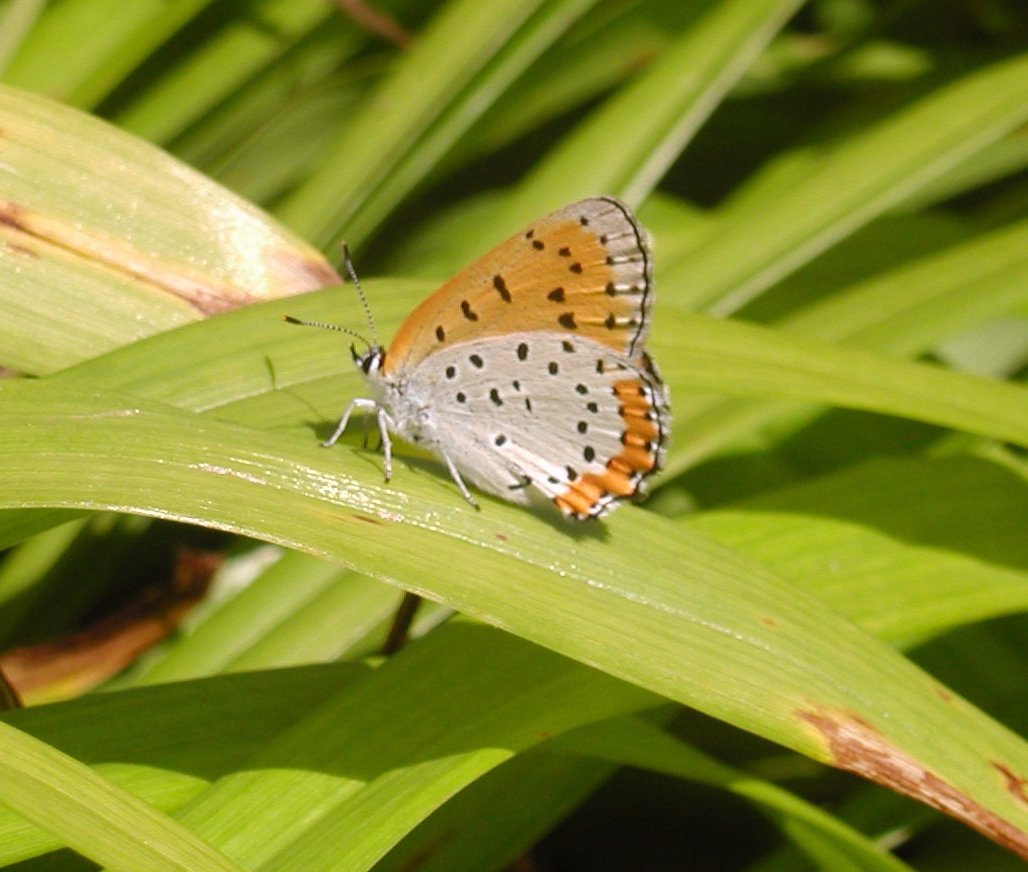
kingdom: Animalia
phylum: Arthropoda
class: Insecta
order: Lepidoptera
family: Sesiidae
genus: Sesia
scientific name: Sesia Lycaena hyllus
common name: Bronze Copper
